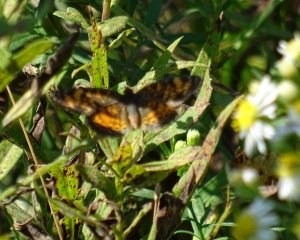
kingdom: Animalia
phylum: Arthropoda
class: Insecta
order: Lepidoptera
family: Nymphalidae
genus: Phyciodes
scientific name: Phyciodes
